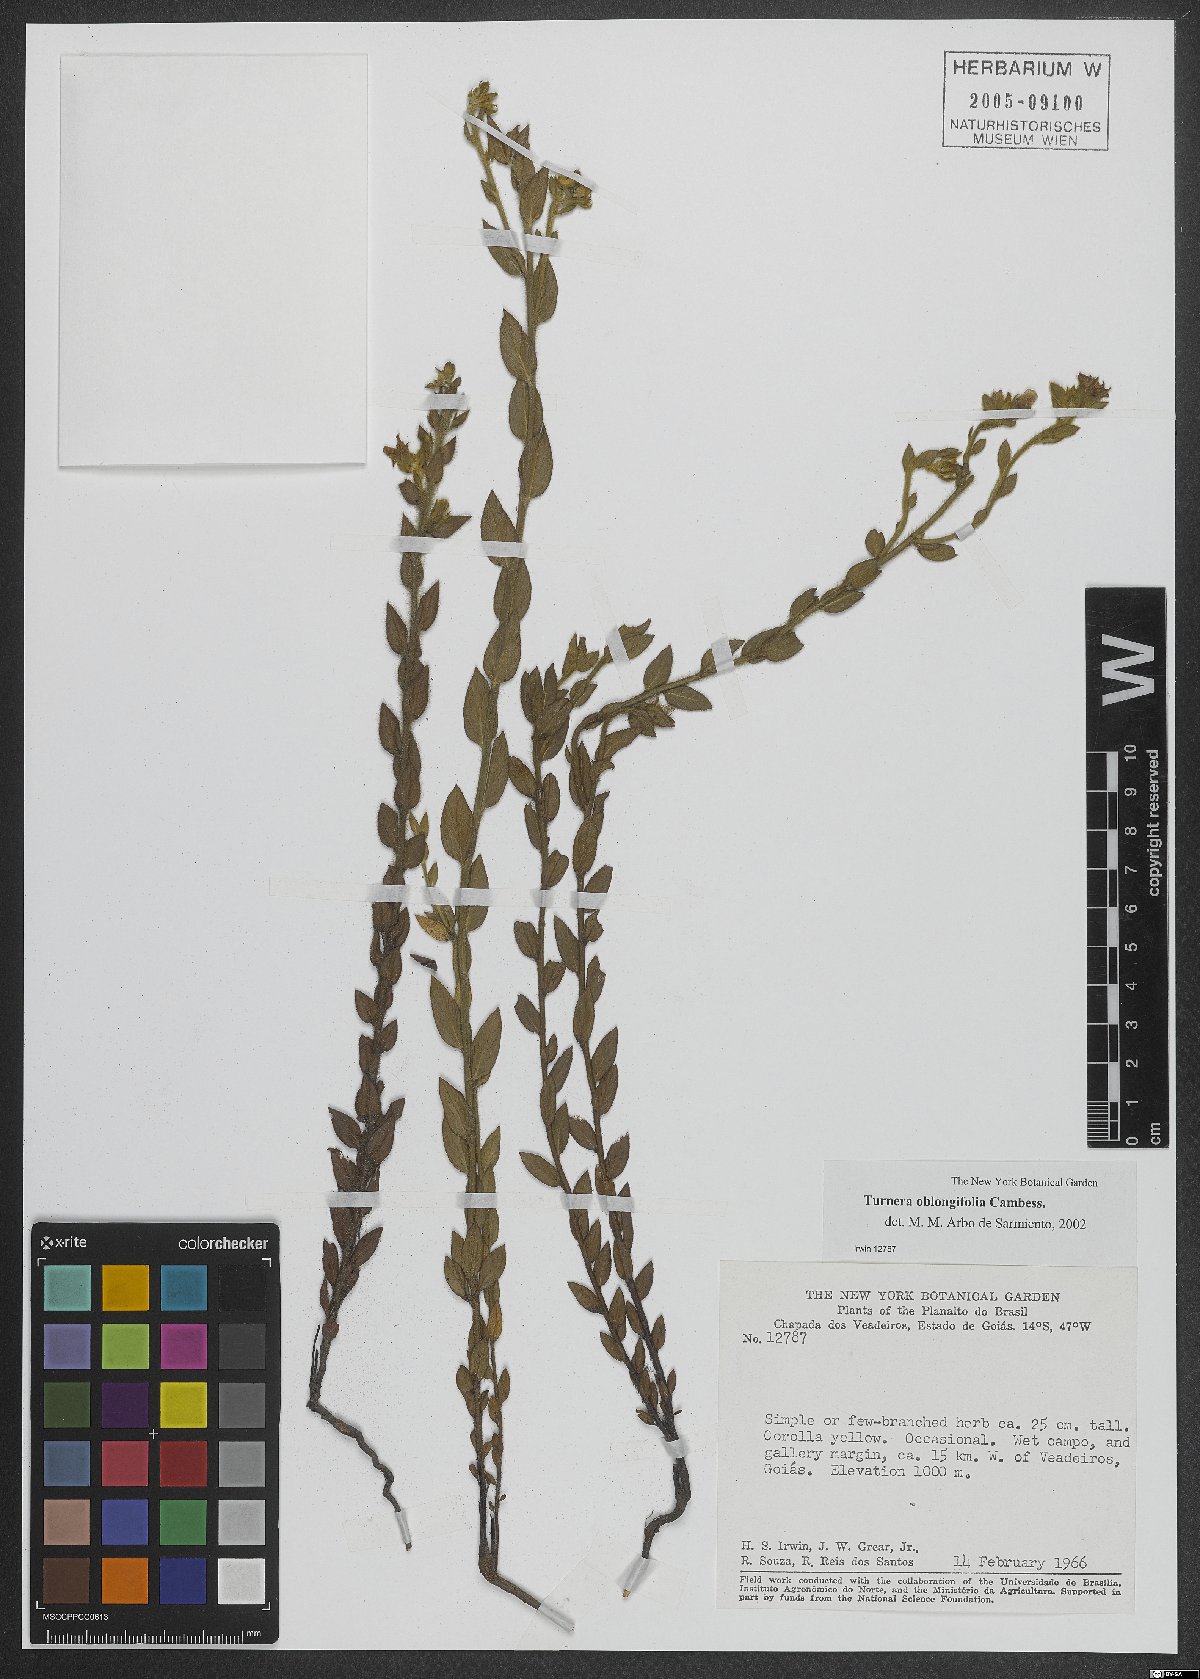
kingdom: Plantae
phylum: Tracheophyta
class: Magnoliopsida
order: Malpighiales
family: Turneraceae
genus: Turnera
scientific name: Turnera oblongifolia
